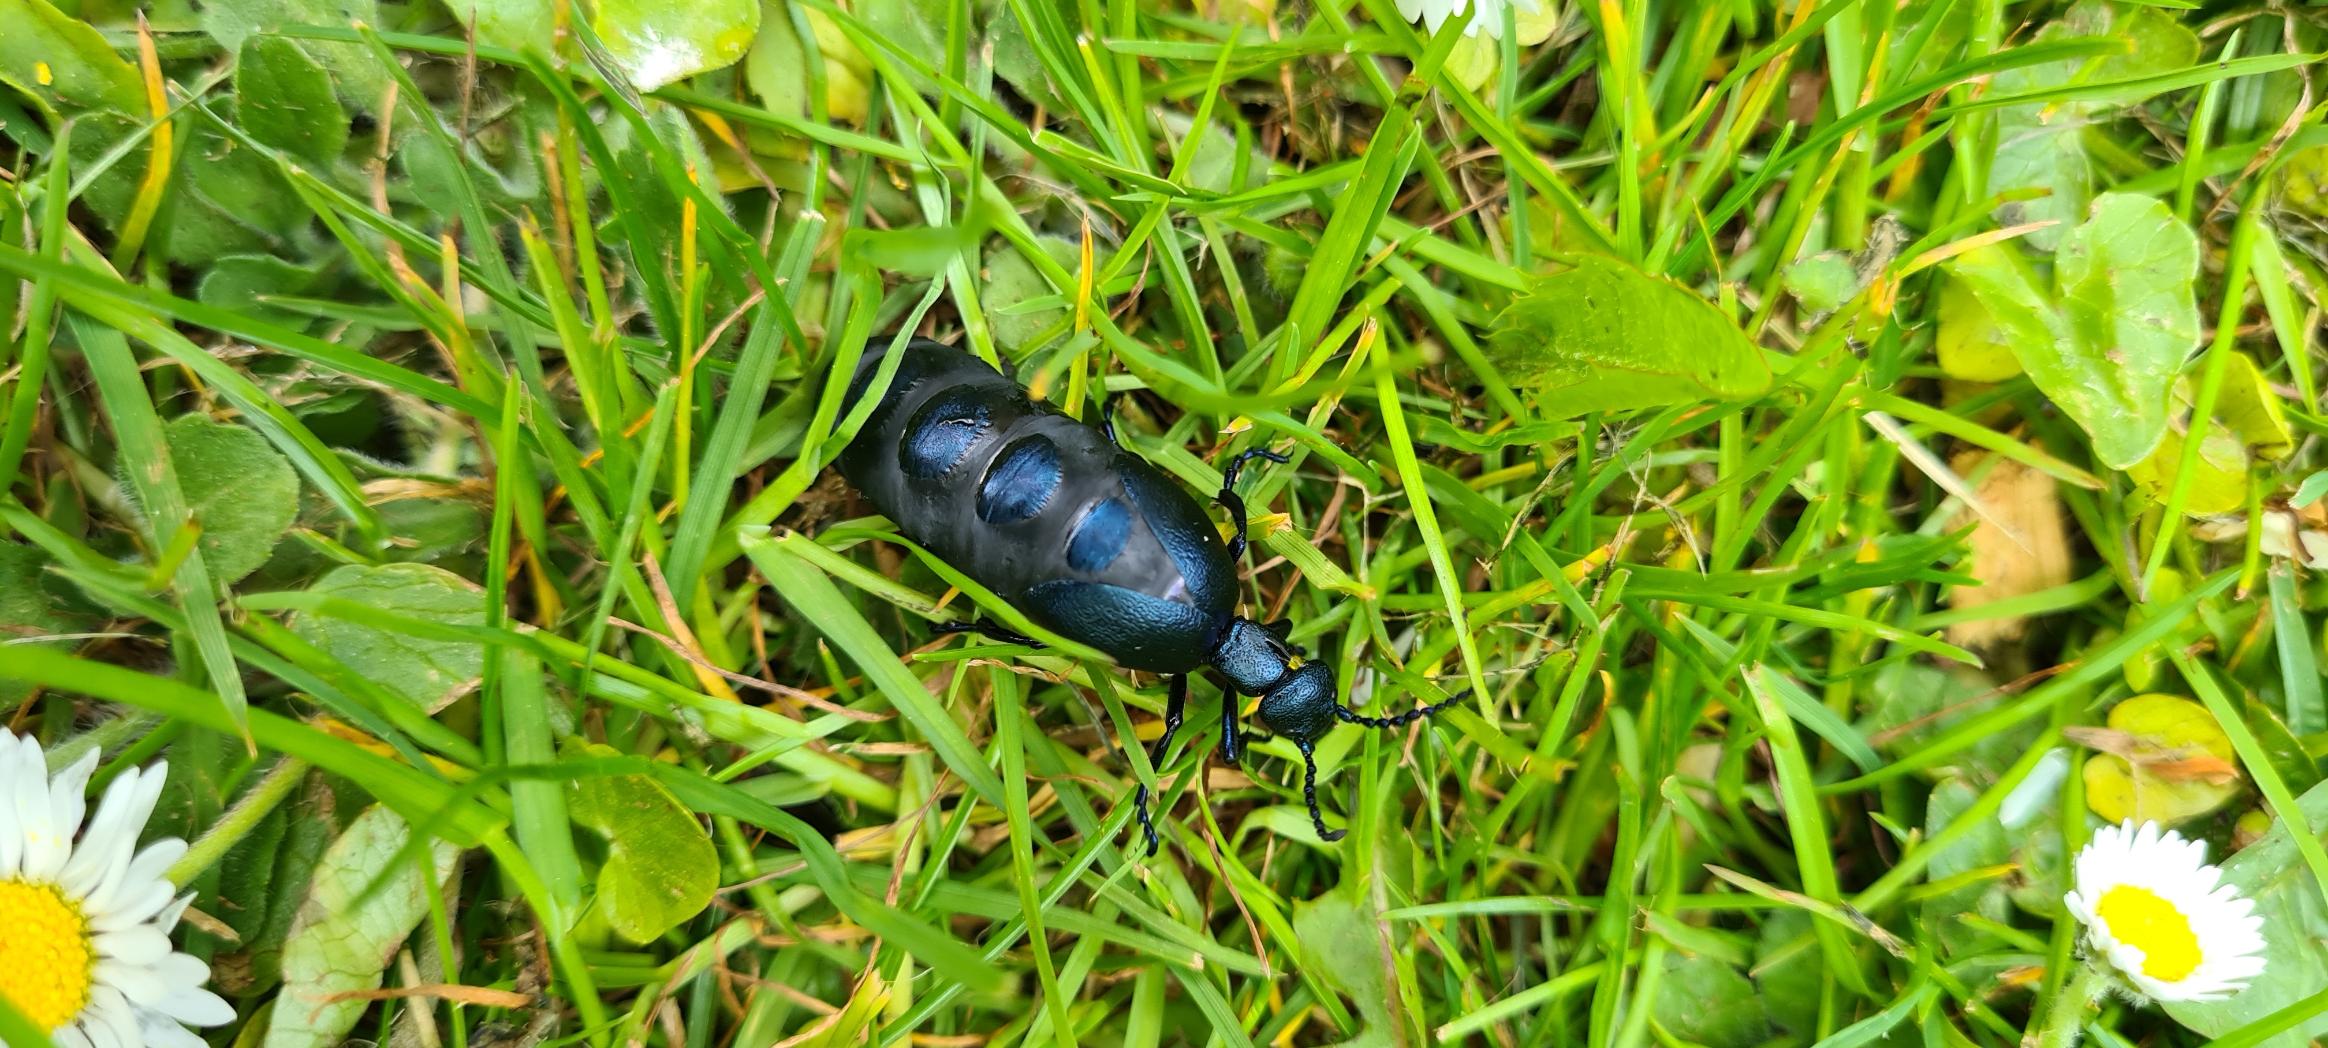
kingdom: Animalia
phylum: Arthropoda
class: Insecta
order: Coleoptera
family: Meloidae
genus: Meloe
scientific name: Meloe violaceus
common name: Blå oliebille
